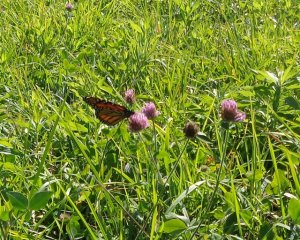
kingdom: Animalia
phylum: Arthropoda
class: Insecta
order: Lepidoptera
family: Nymphalidae
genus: Danaus
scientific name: Danaus plexippus
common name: Monarch
